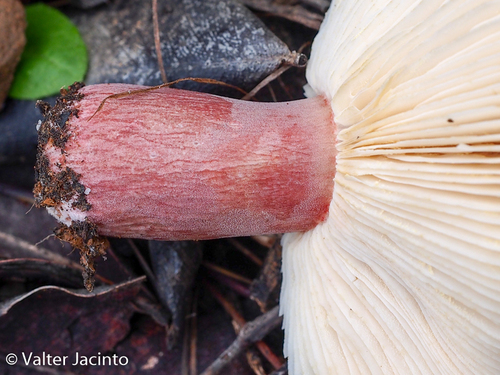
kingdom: Fungi
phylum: Basidiomycota
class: Agaricomycetes
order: Russulales
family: Russulaceae
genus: Russula
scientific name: Russula torulosa
